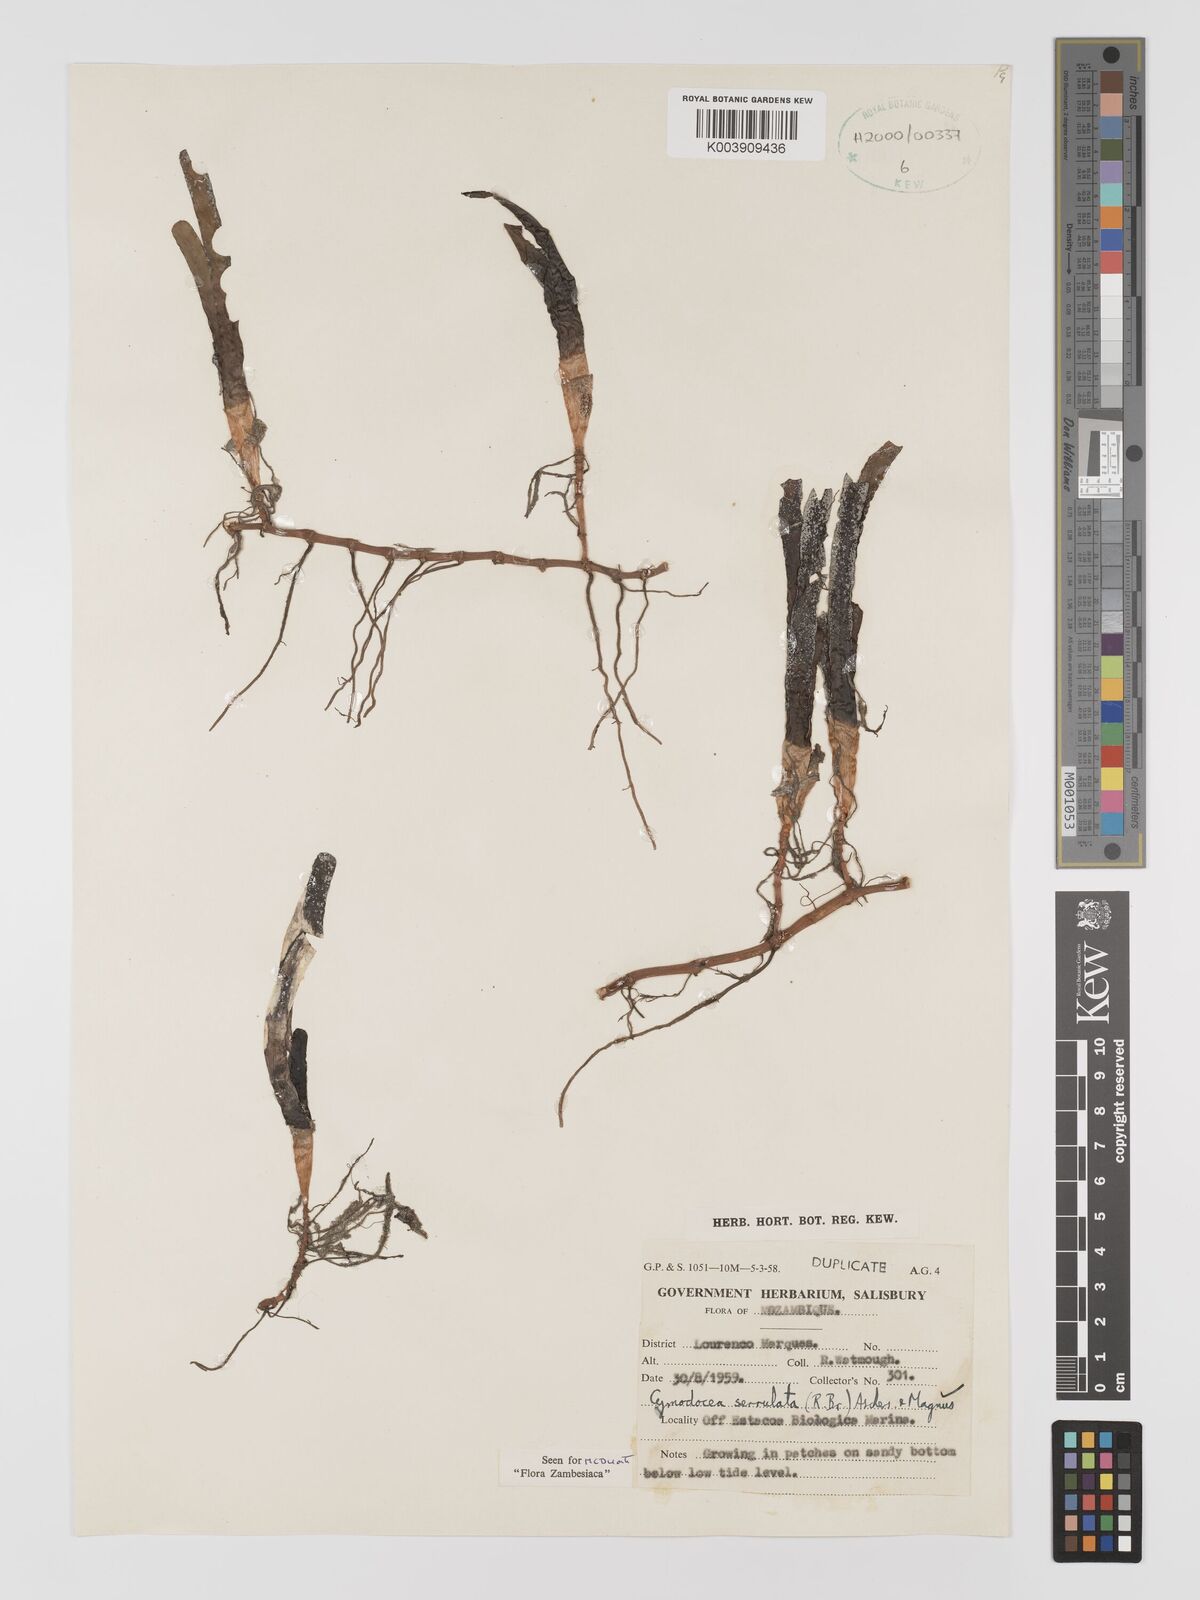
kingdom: Plantae
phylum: Tracheophyta
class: Liliopsida
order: Alismatales
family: Cymodoceaceae
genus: Oceana
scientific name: Oceana serrulata
